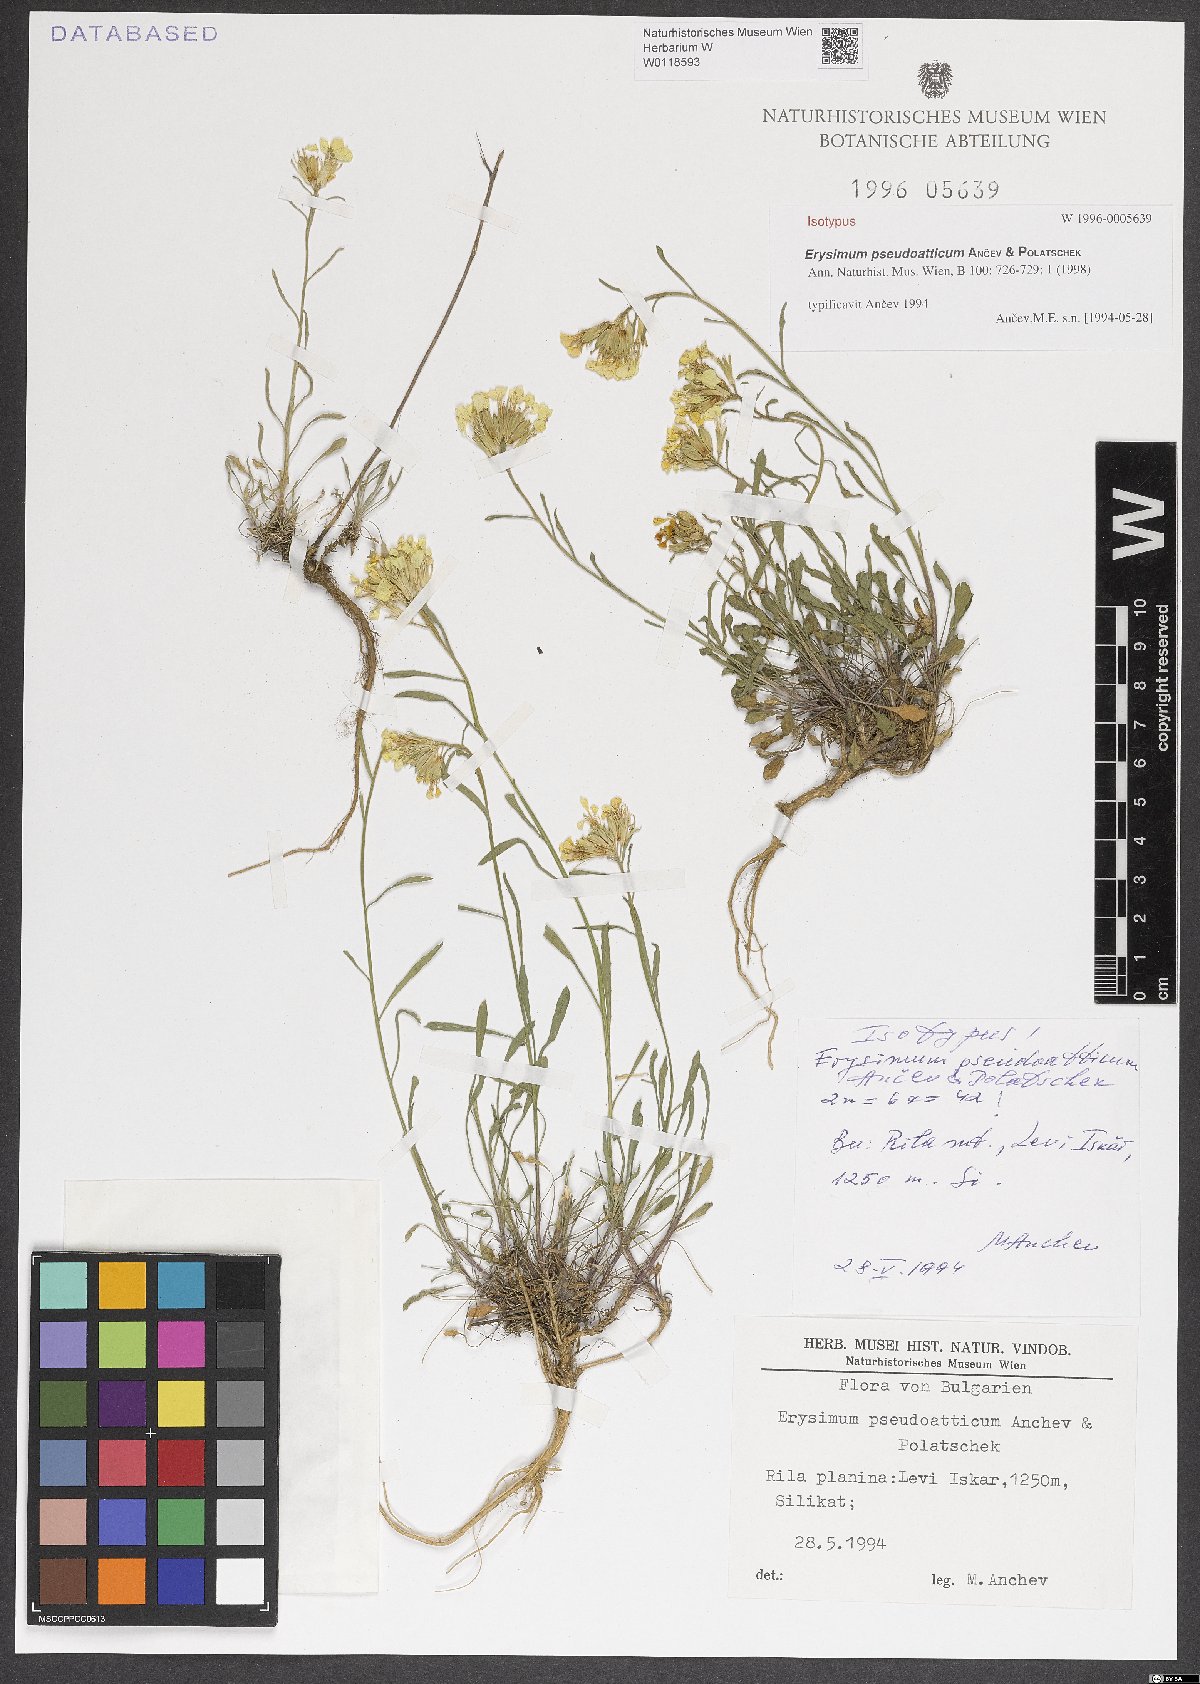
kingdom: Plantae
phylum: Tracheophyta
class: Magnoliopsida
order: Brassicales
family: Brassicaceae
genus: Erysimum
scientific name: Erysimum pseudoatticum
